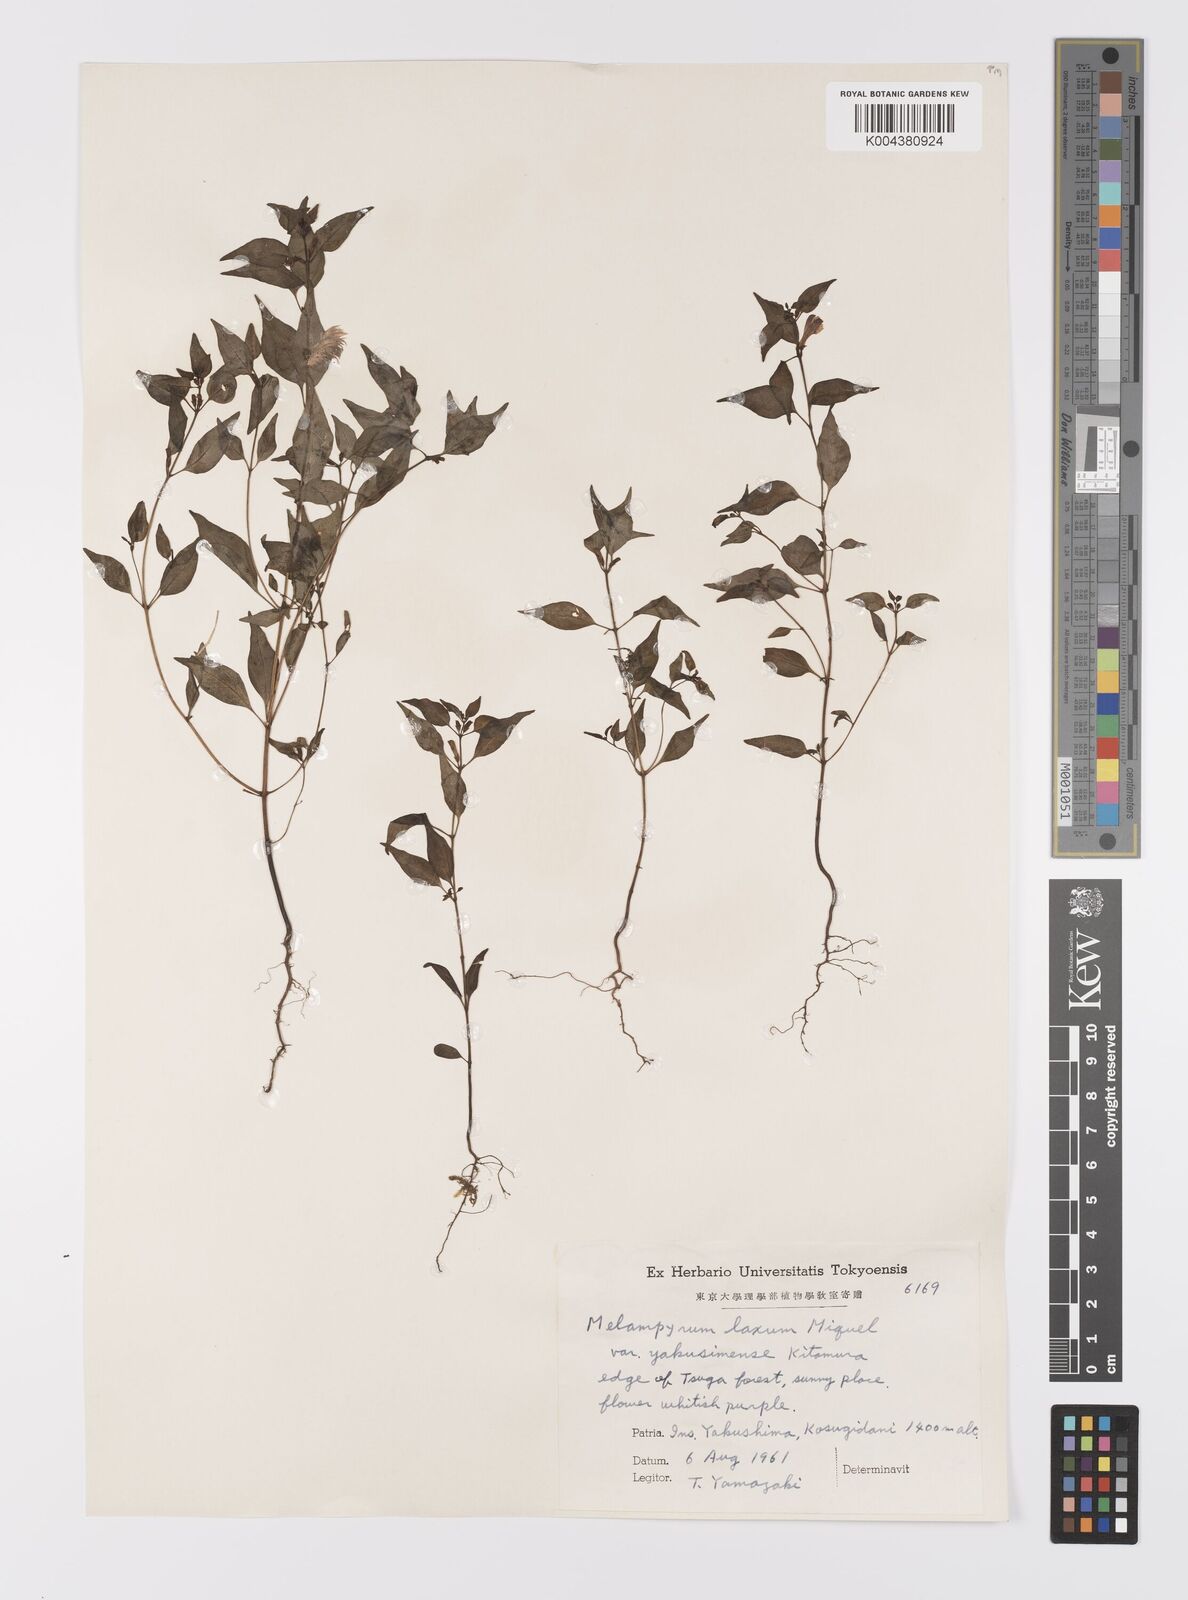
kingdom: Plantae
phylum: Tracheophyta
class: Magnoliopsida
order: Lamiales
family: Orobanchaceae
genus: Melampyrum
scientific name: Melampyrum laxum
